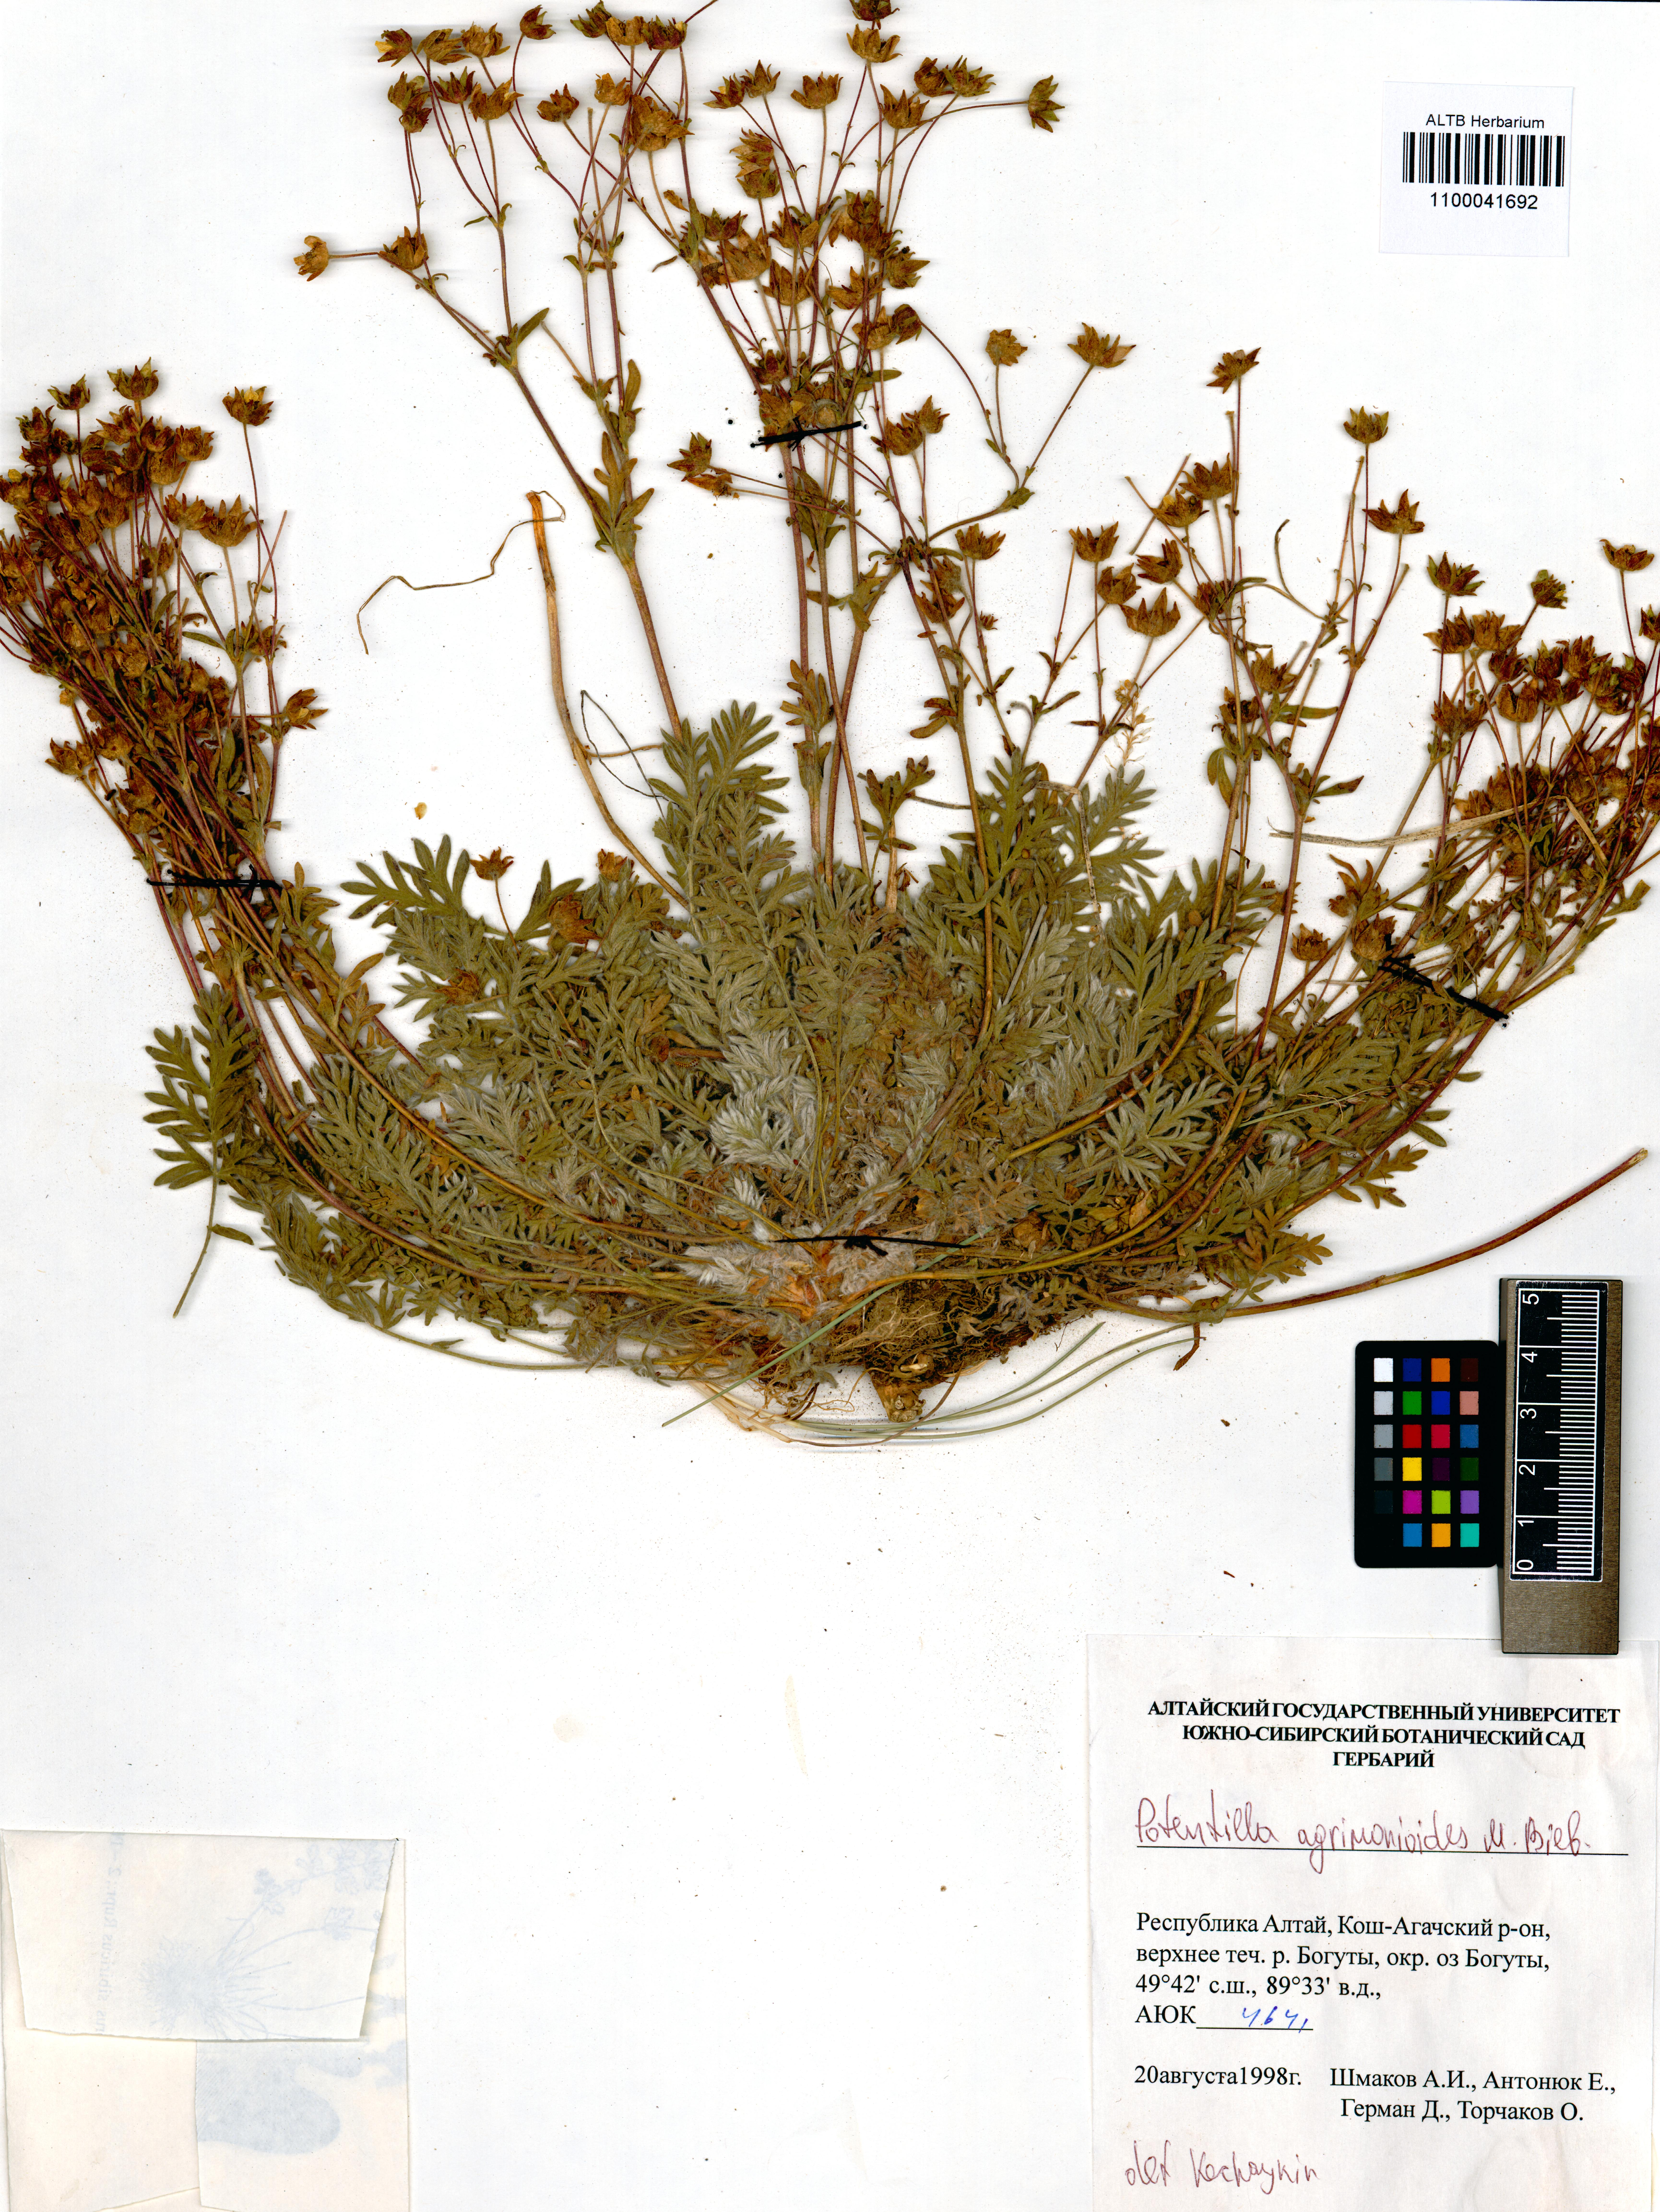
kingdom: Plantae
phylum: Tracheophyta
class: Magnoliopsida
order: Rosales
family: Rosaceae
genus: Potentilla
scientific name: Potentilla agrimonioides
